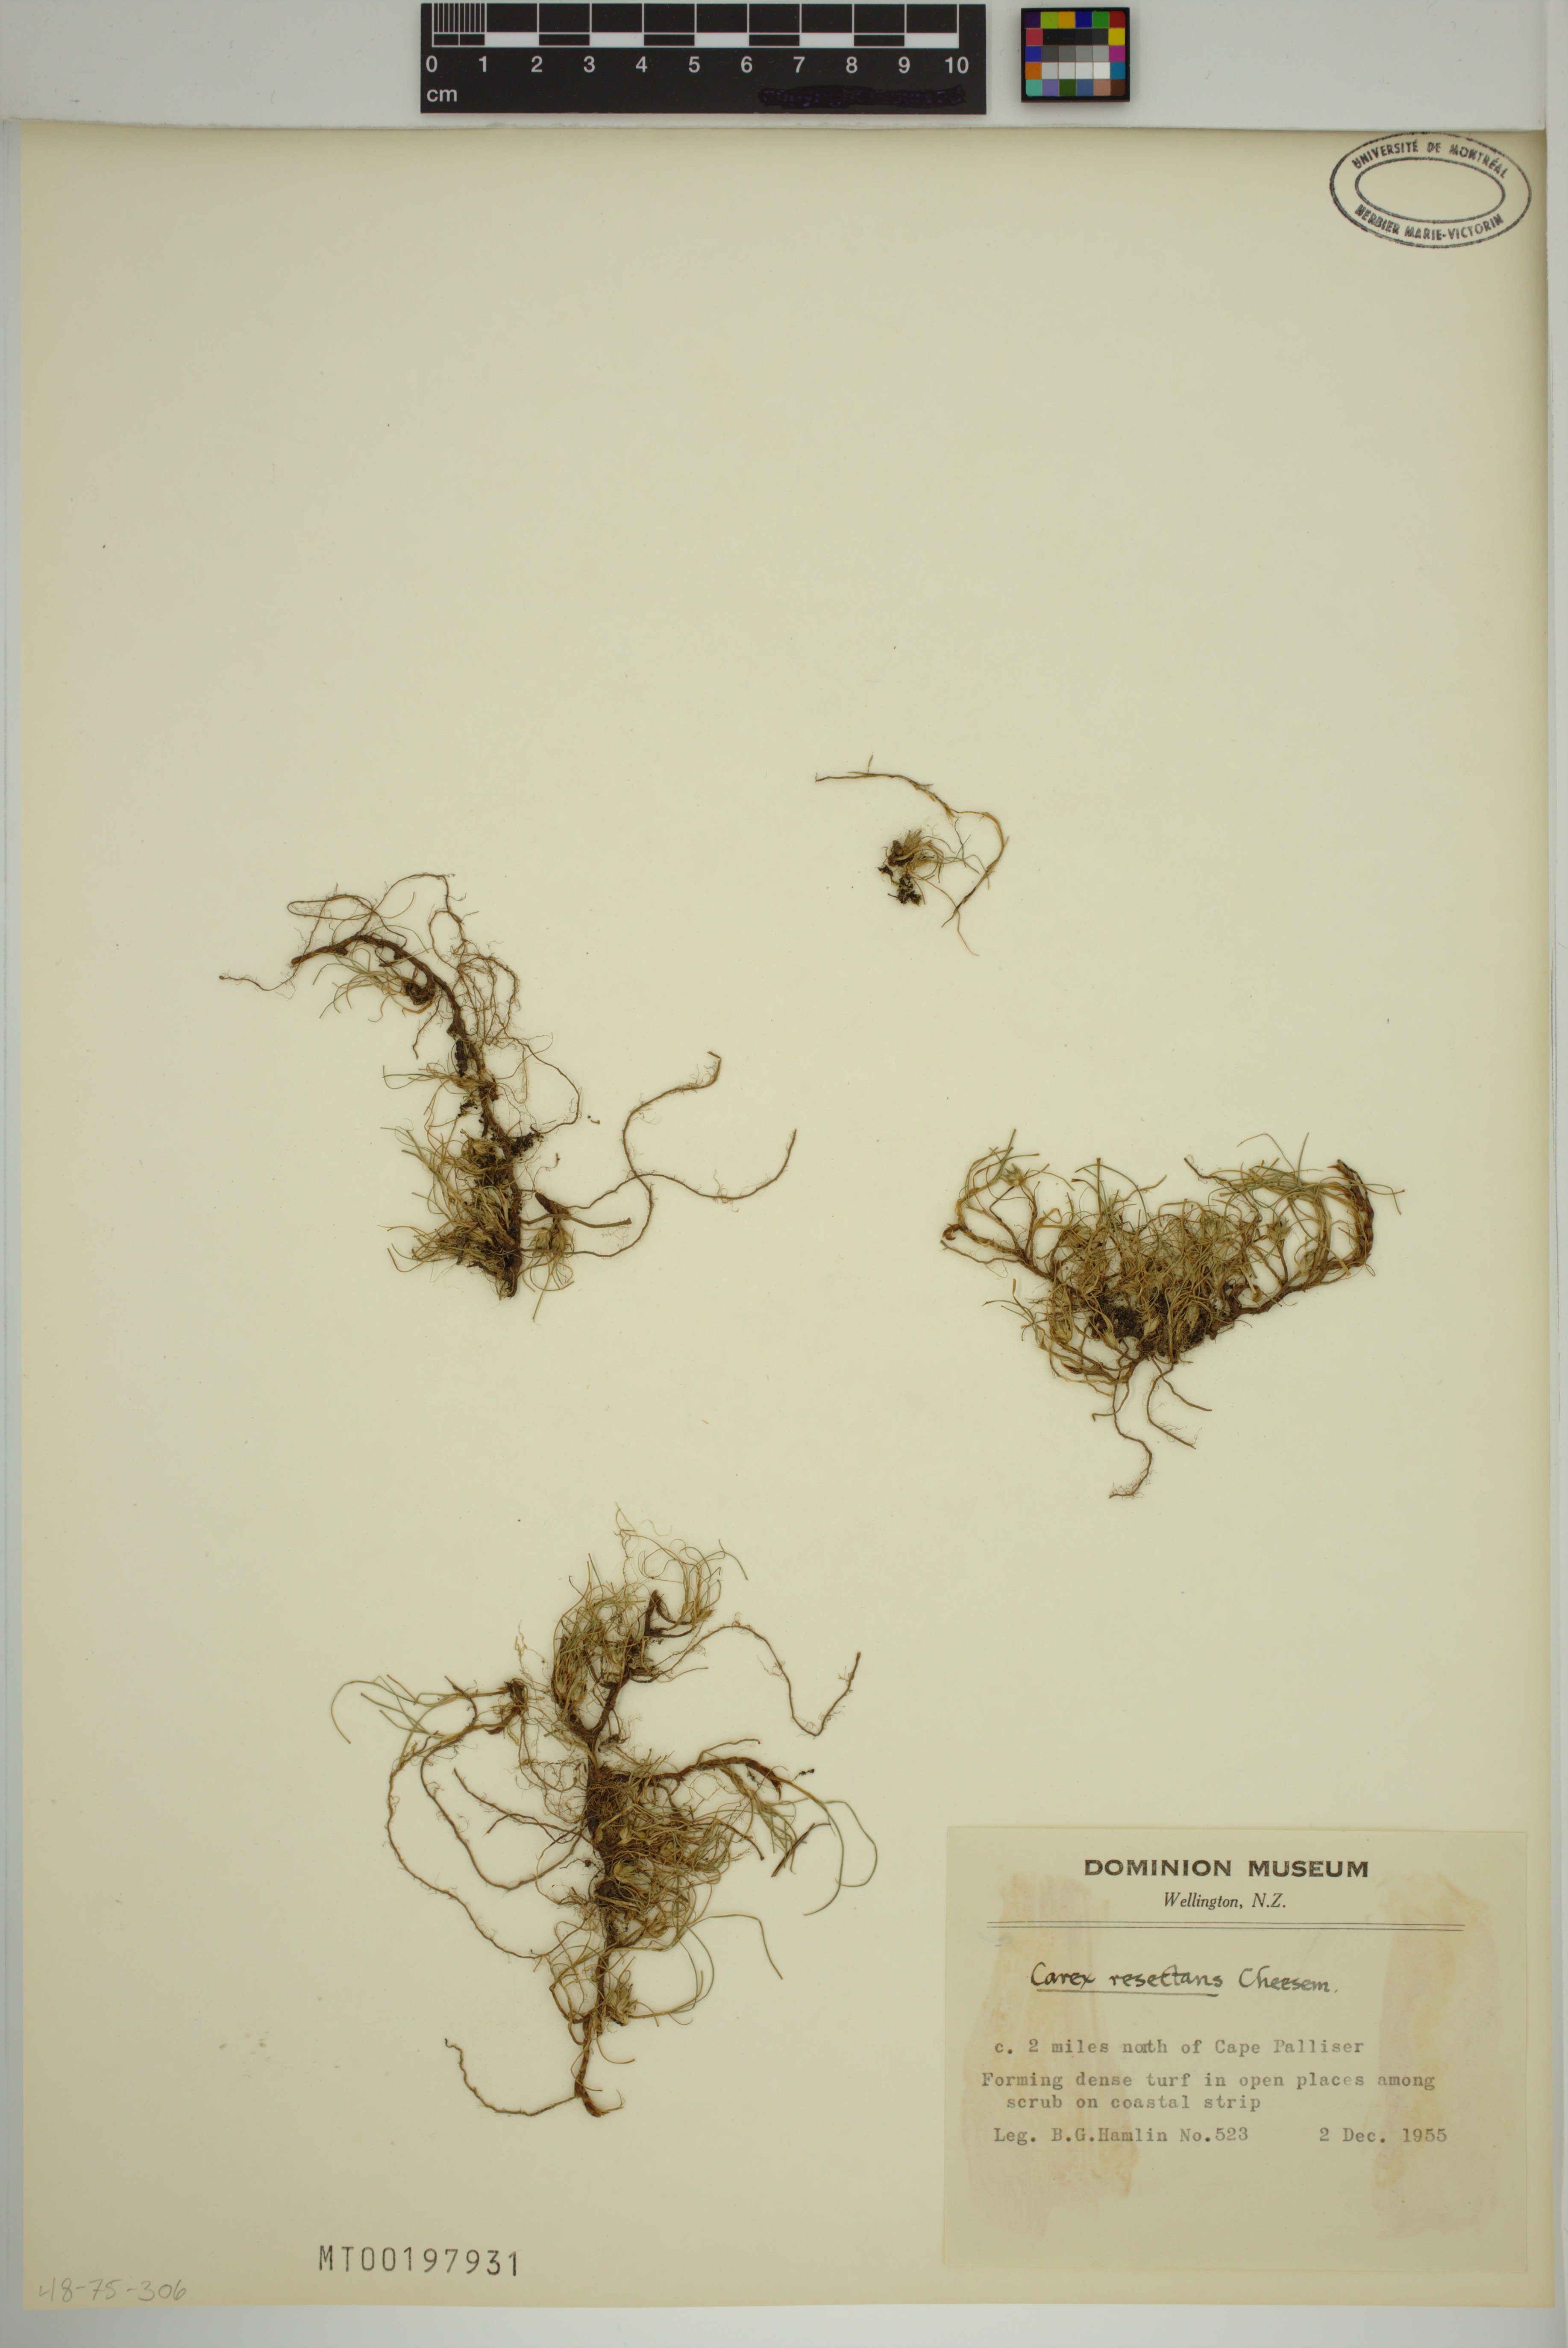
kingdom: Plantae
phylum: Tracheophyta
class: Liliopsida
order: Poales
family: Cyperaceae
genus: Carex
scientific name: Carex resectans
